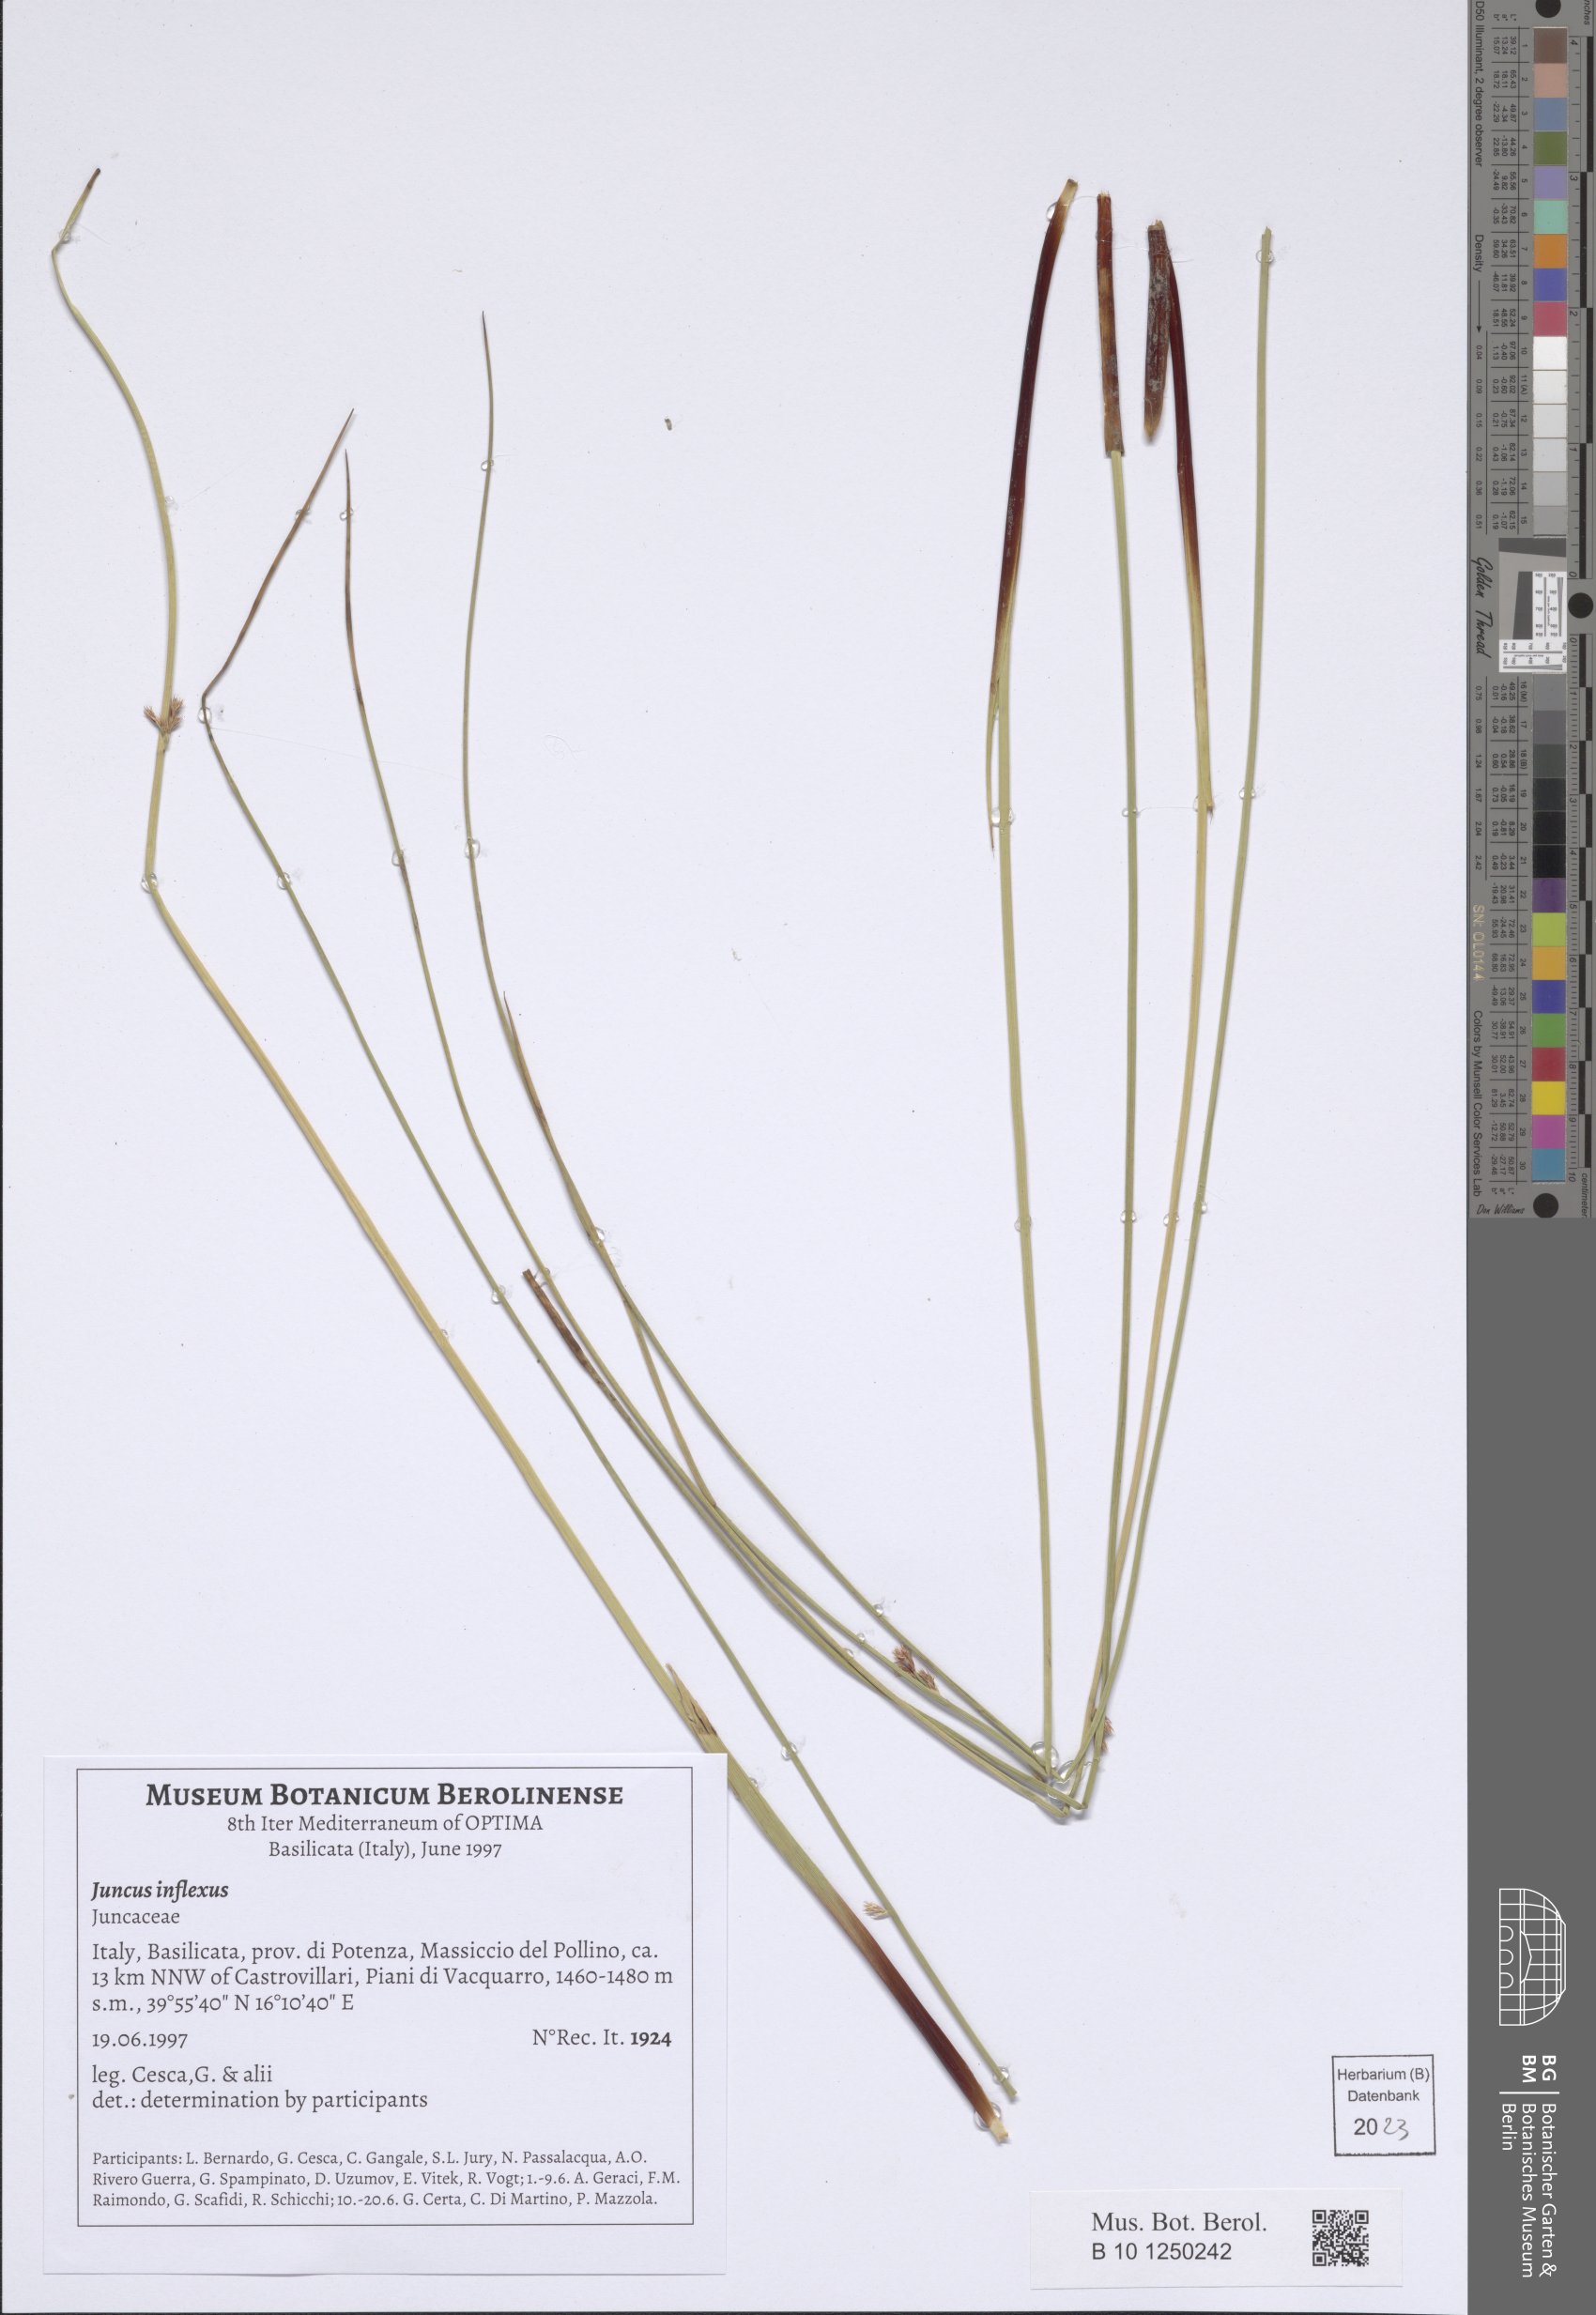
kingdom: Plantae
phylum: Tracheophyta
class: Liliopsida
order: Poales
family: Juncaceae
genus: Juncus
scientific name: Juncus inflexus
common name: Hard rush
